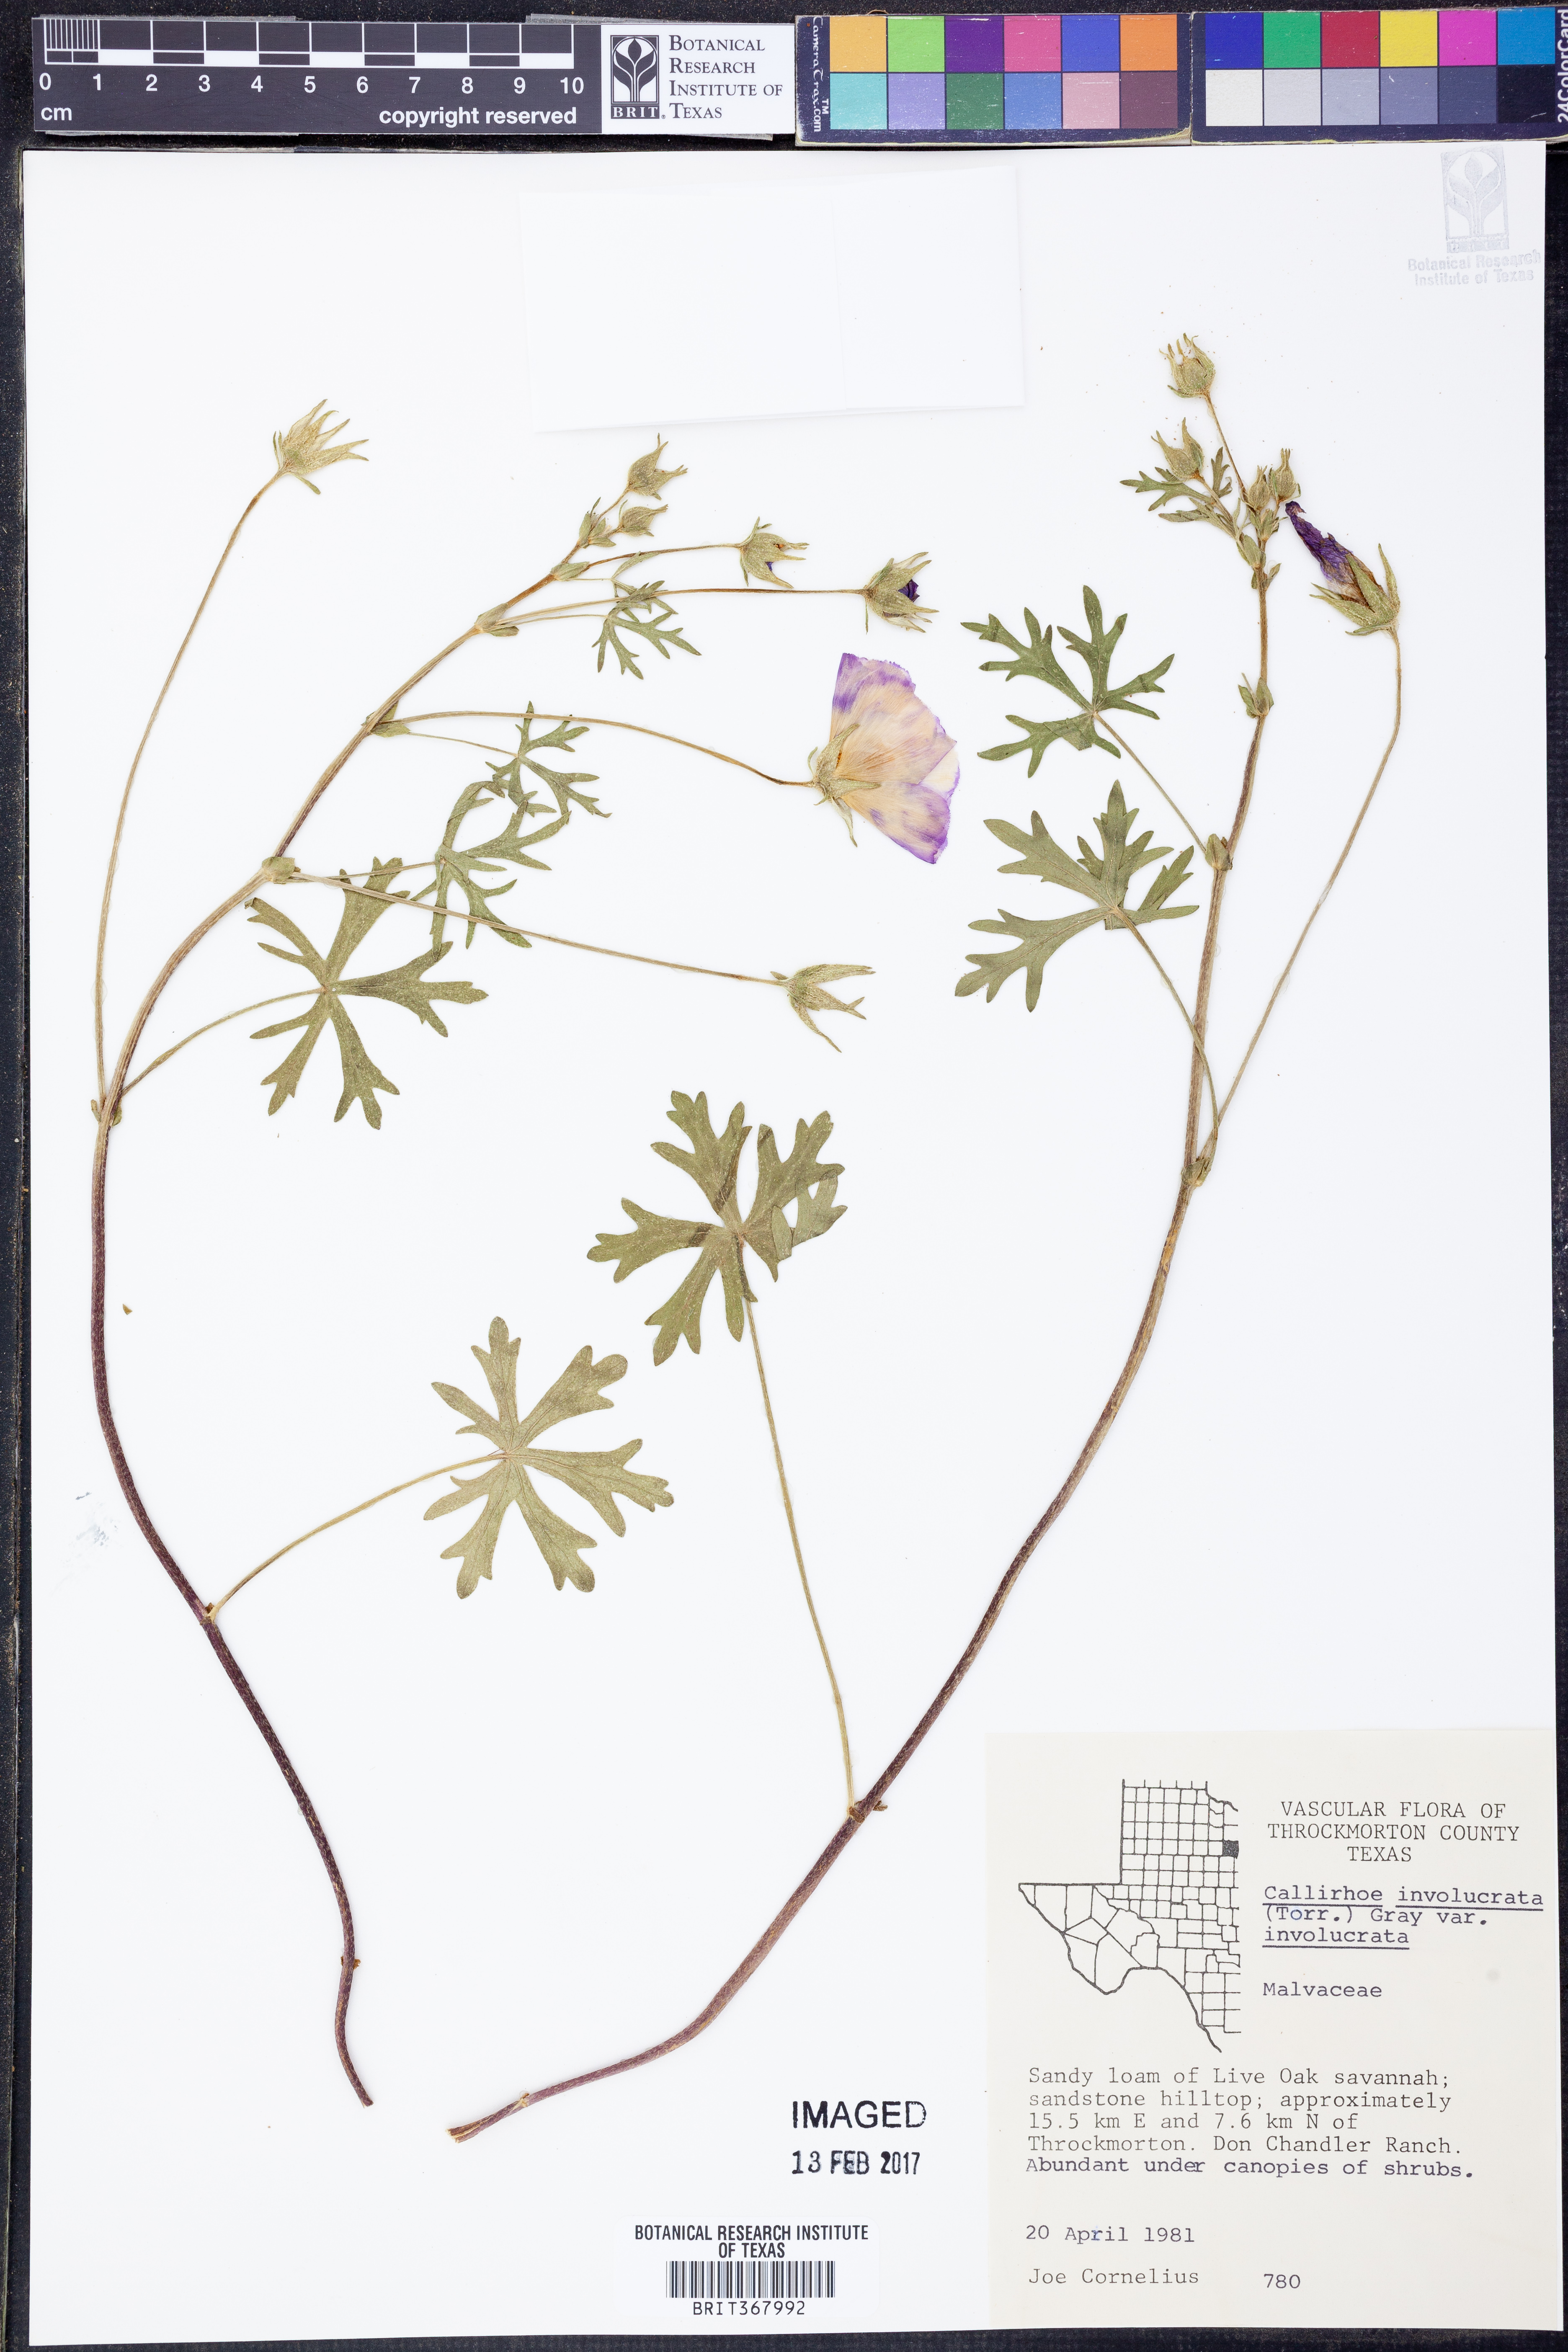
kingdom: Plantae
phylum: Tracheophyta
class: Magnoliopsida
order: Malvales
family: Malvaceae
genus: Callirhoe
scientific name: Callirhoe involucrata
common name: Purple poppy-mallow
